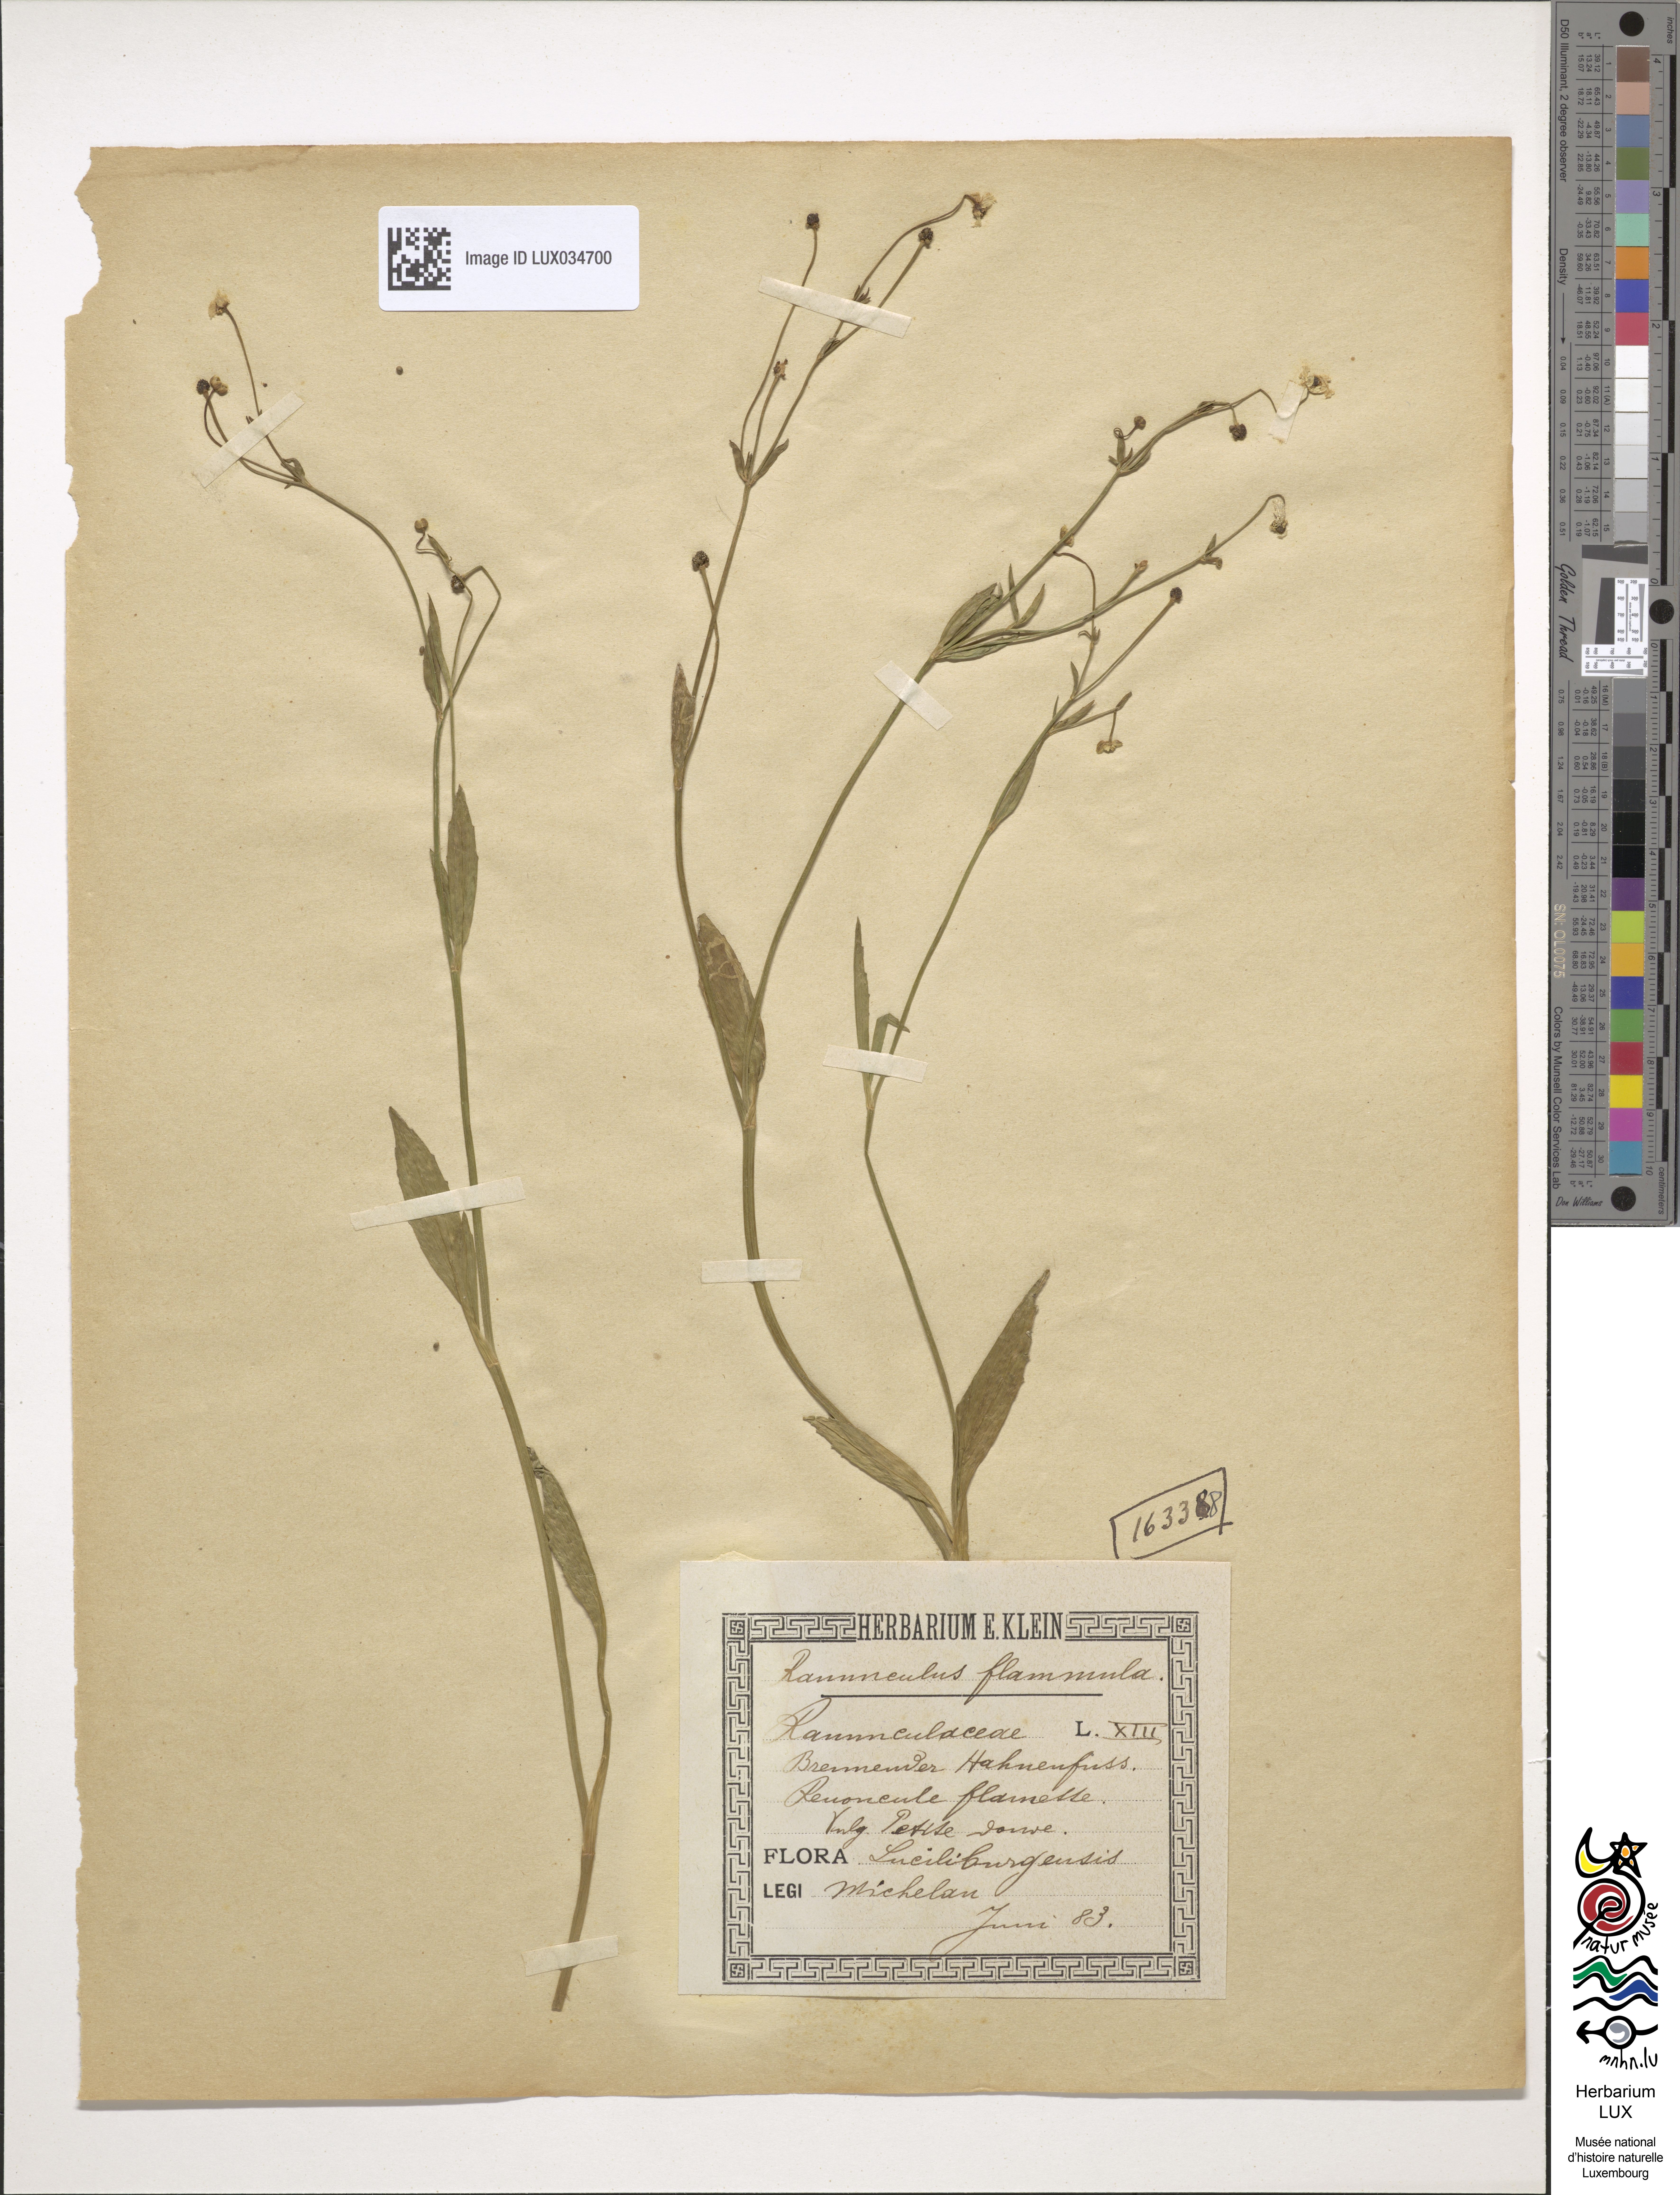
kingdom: Plantae
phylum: Tracheophyta
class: Magnoliopsida
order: Ranunculales
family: Ranunculaceae
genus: Ranunculus
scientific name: Ranunculus flammula
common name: Lesser spearwort
